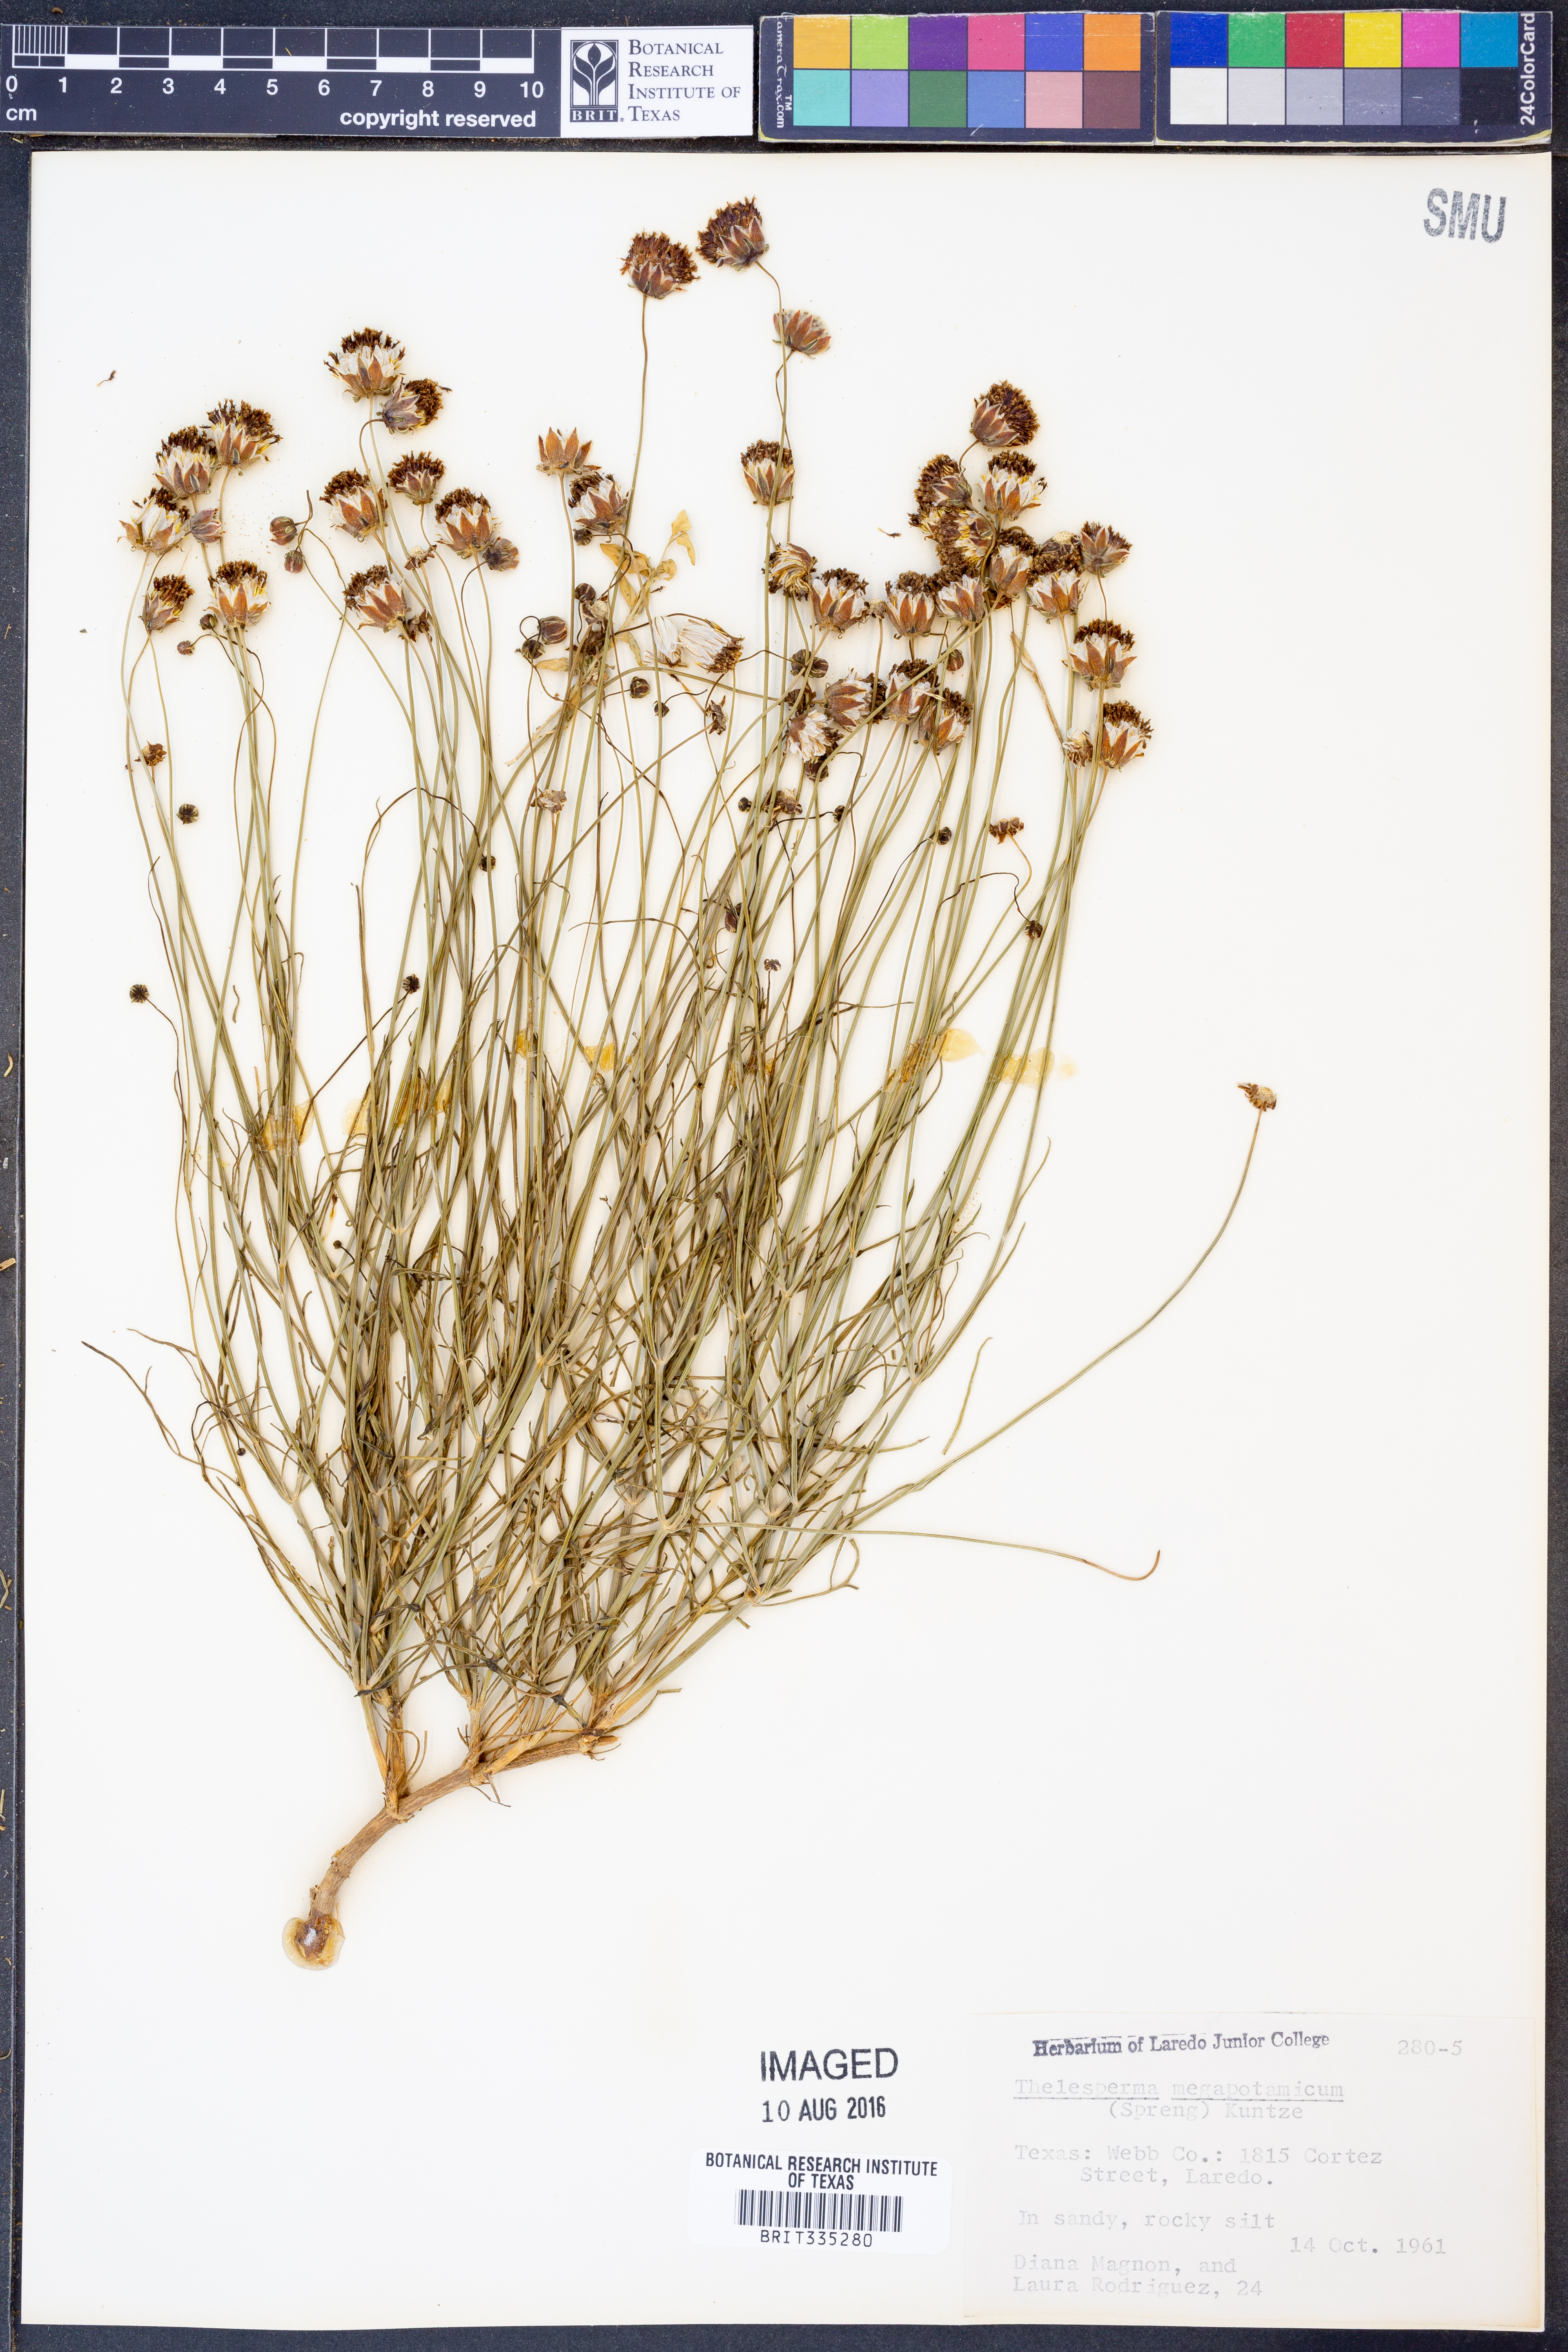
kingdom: Plantae
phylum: Tracheophyta
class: Magnoliopsida
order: Asterales
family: Asteraceae
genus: Thelesperma
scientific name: Thelesperma megapotamicum
